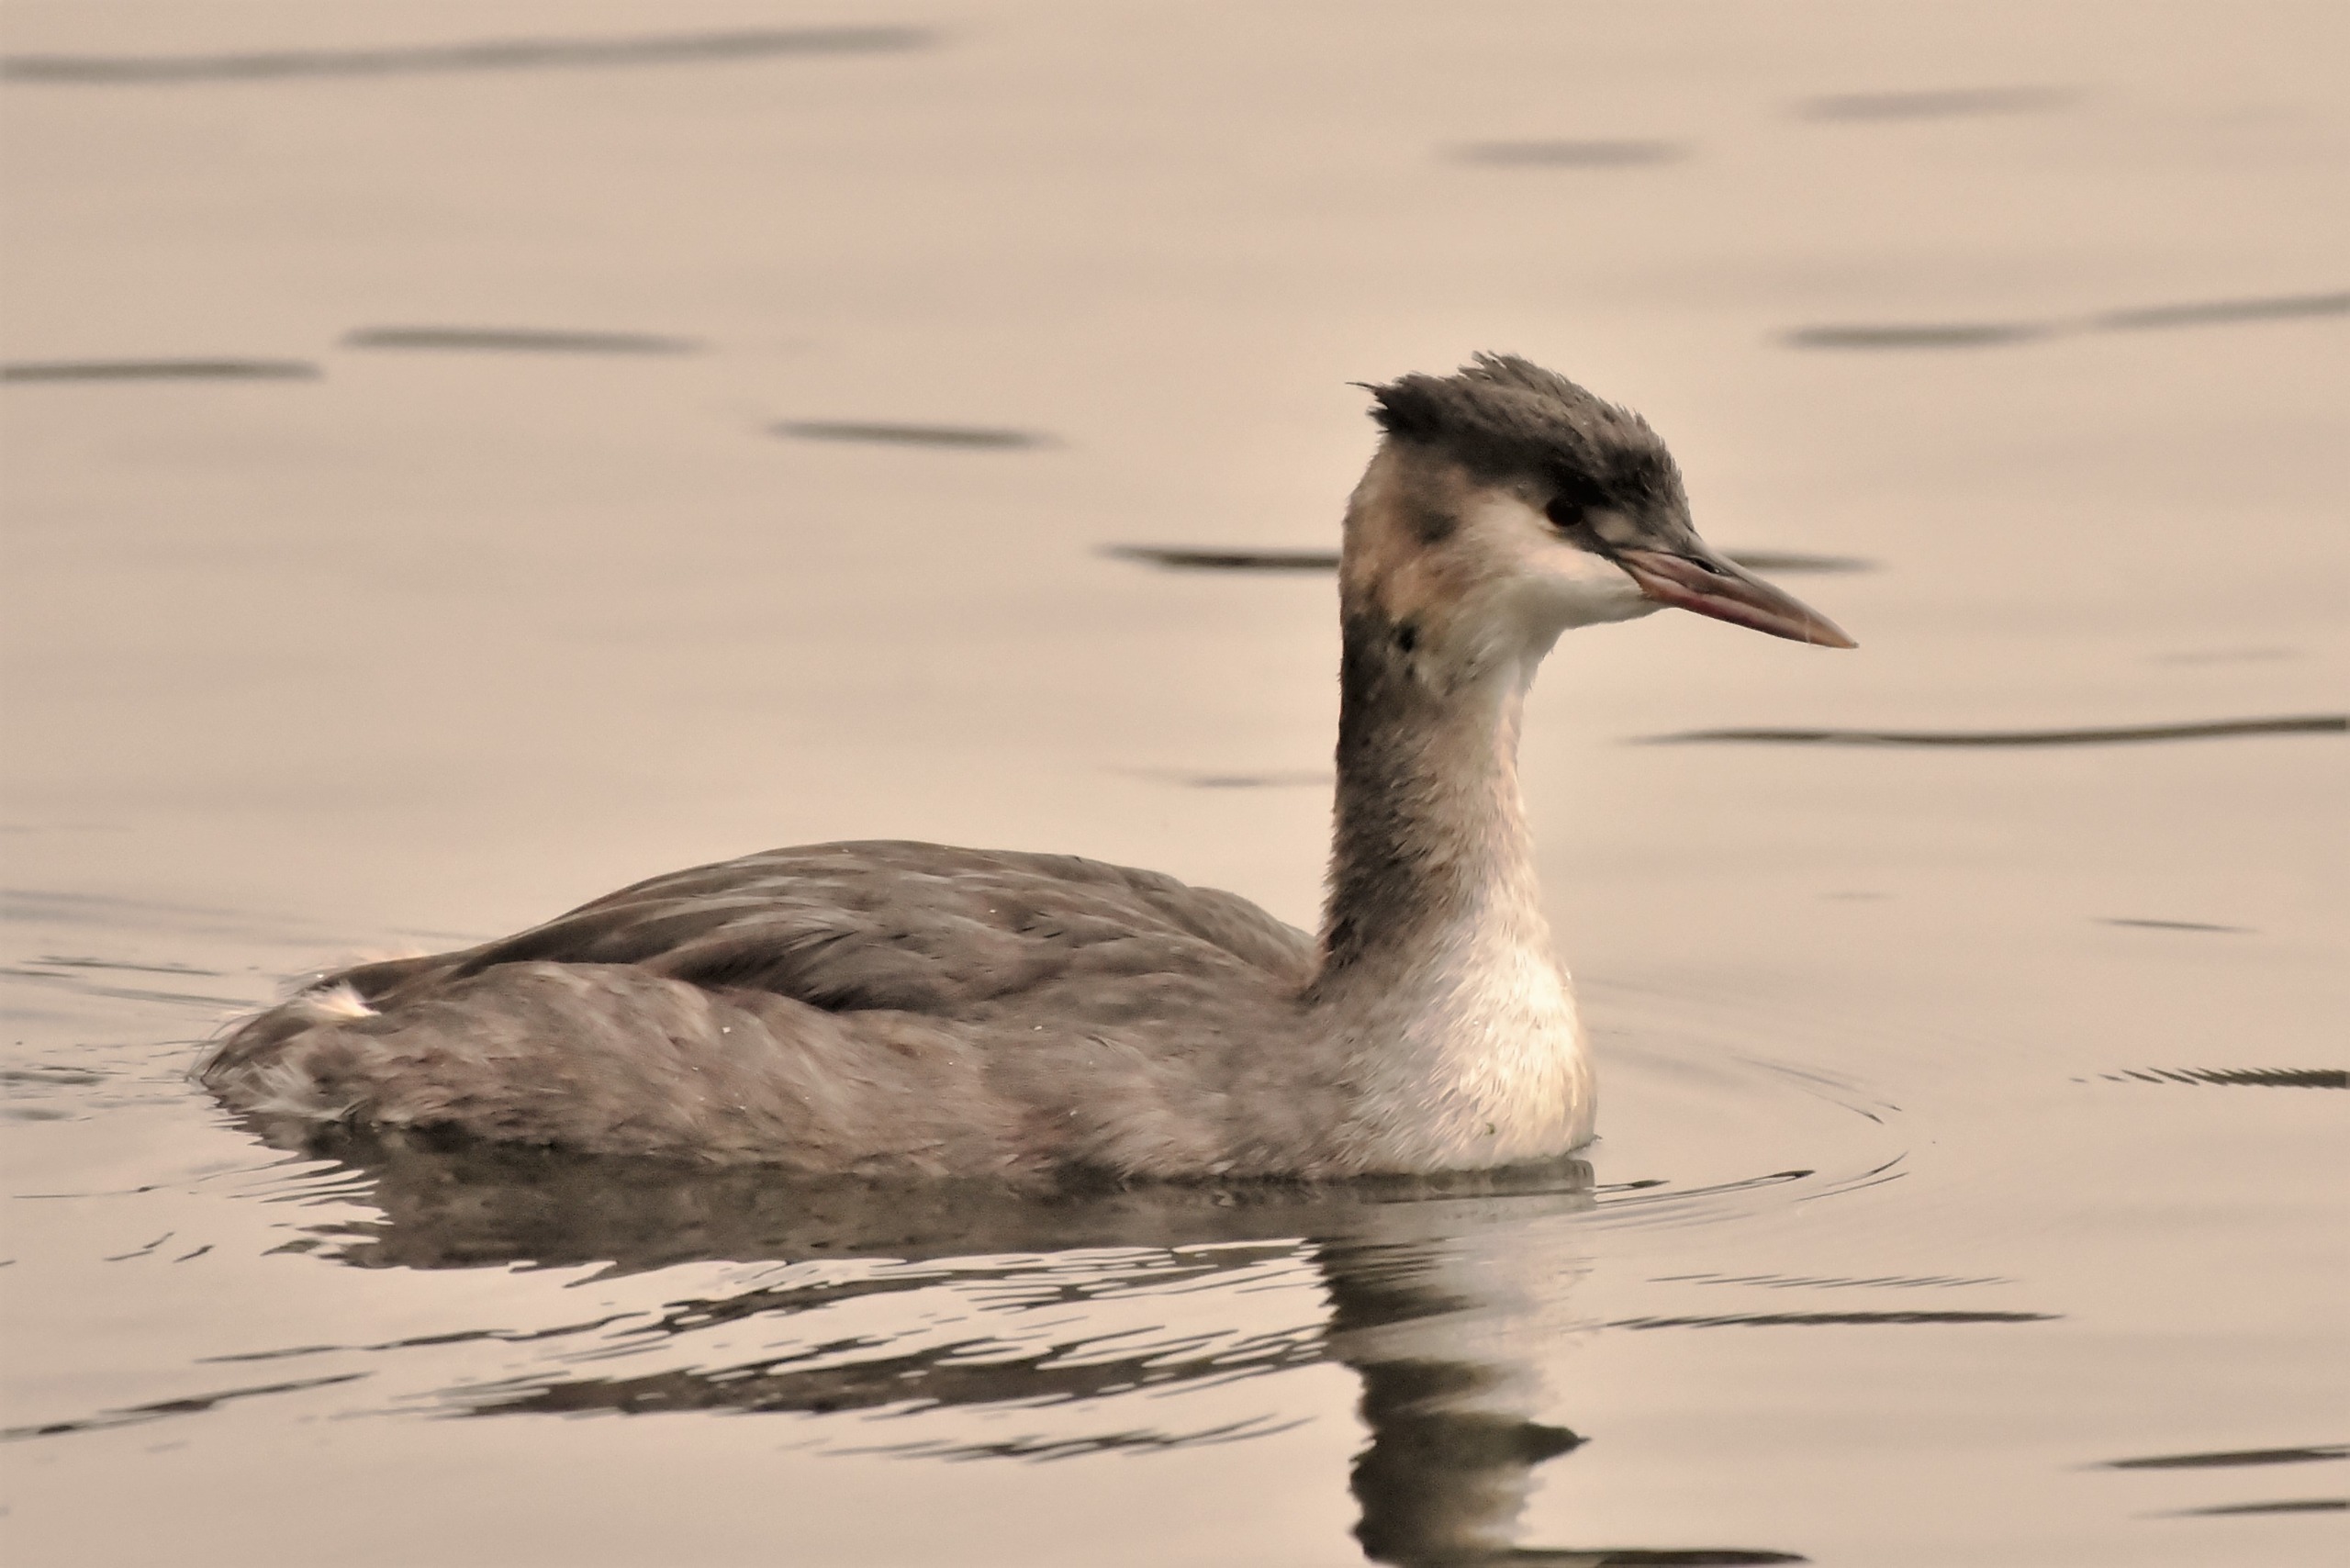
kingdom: Animalia
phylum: Chordata
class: Aves
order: Podicipediformes
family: Podicipedidae
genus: Podiceps
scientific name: Podiceps cristatus
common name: Toppet lappedykker
